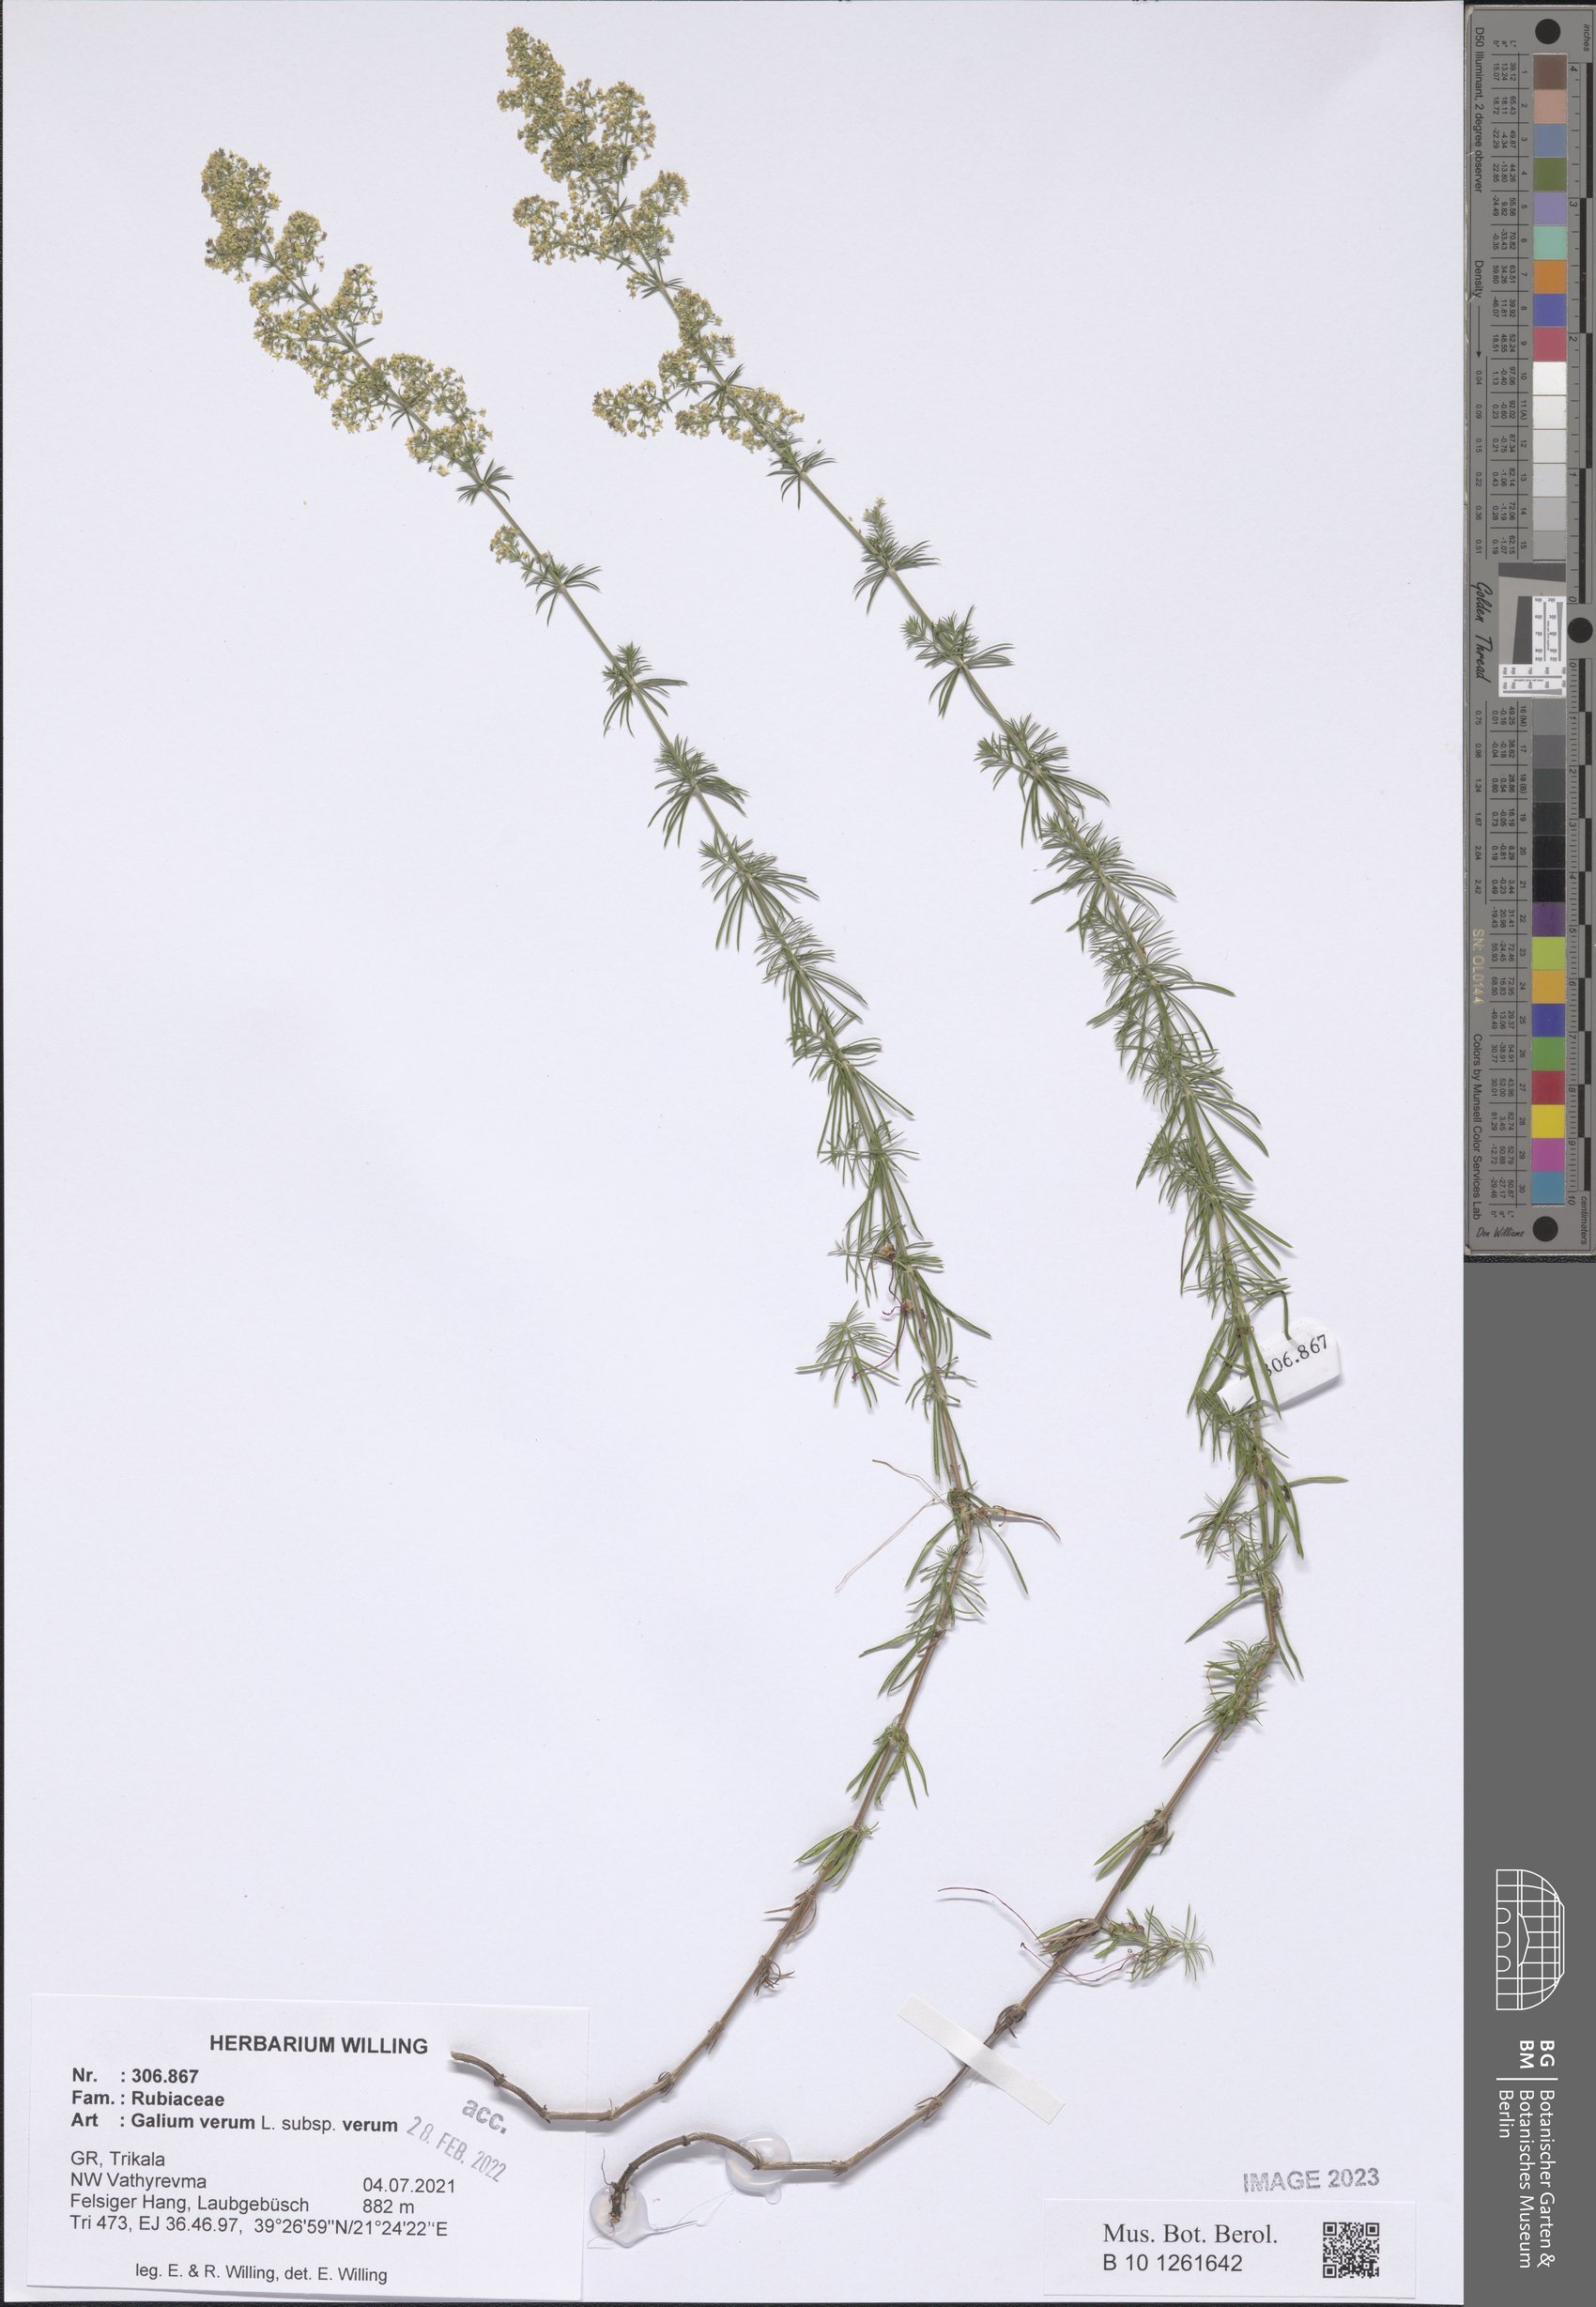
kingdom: Plantae
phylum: Tracheophyta
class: Magnoliopsida
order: Gentianales
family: Rubiaceae
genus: Galium
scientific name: Galium verum
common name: Lady's bedstraw
